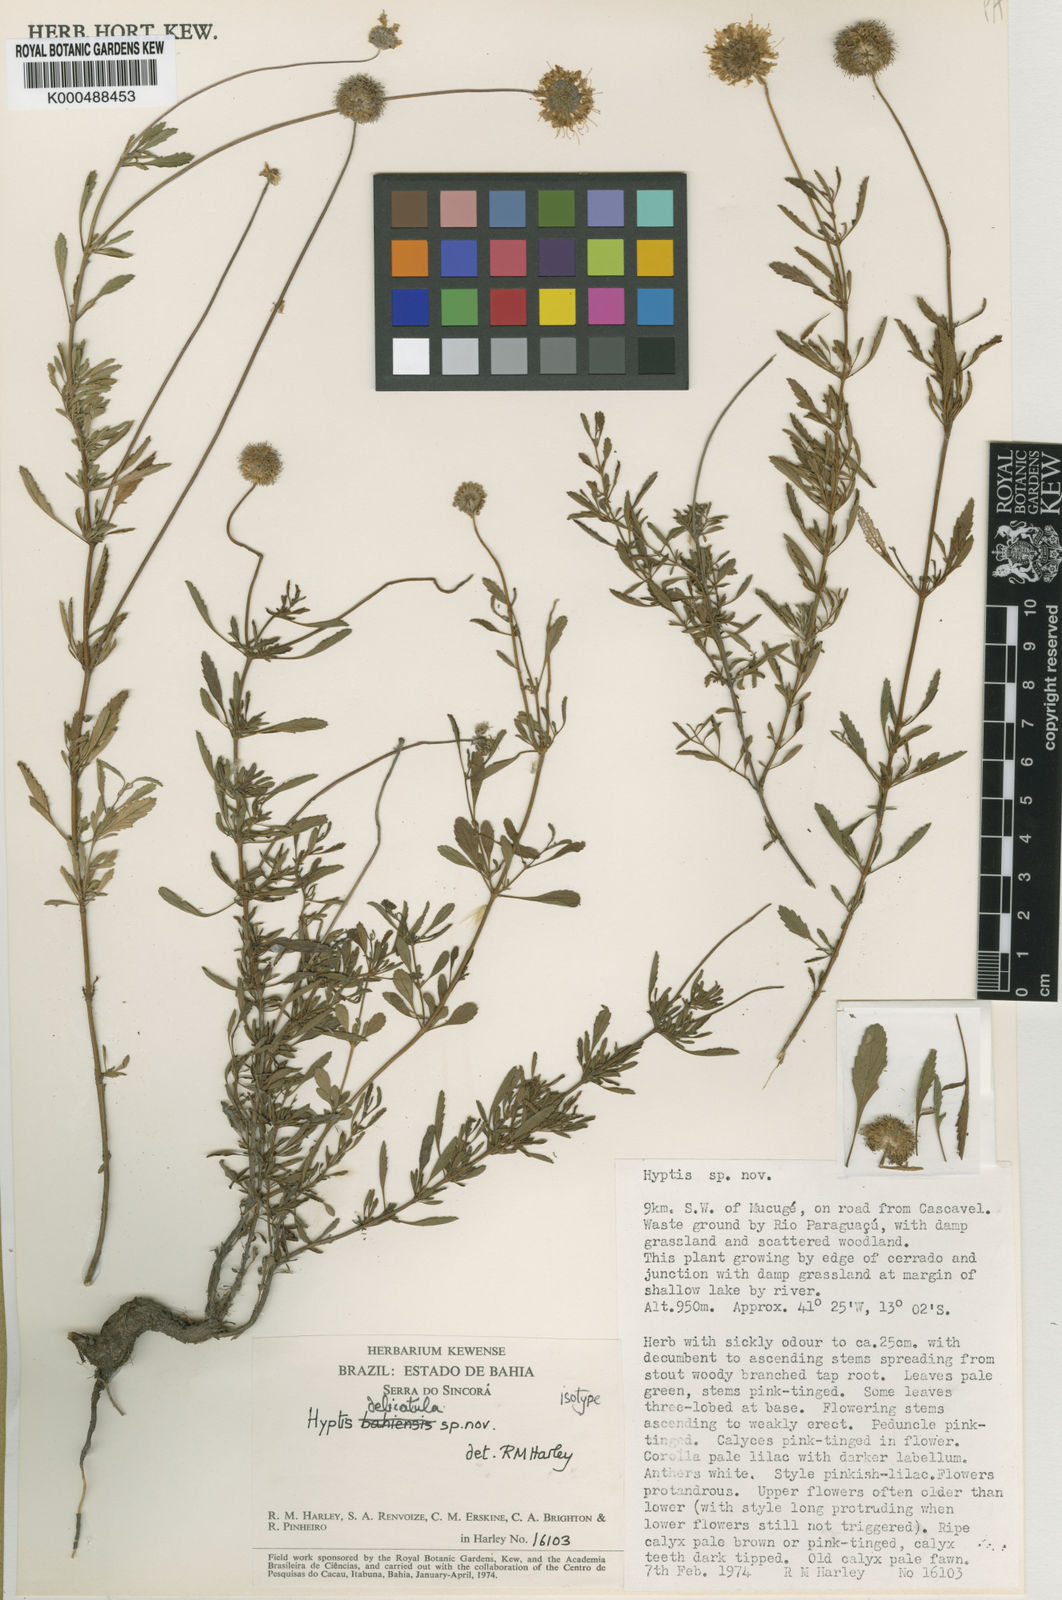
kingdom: Plantae
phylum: Tracheophyta
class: Magnoliopsida
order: Lamiales
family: Lamiaceae
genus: Hyptis
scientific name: Hyptis
